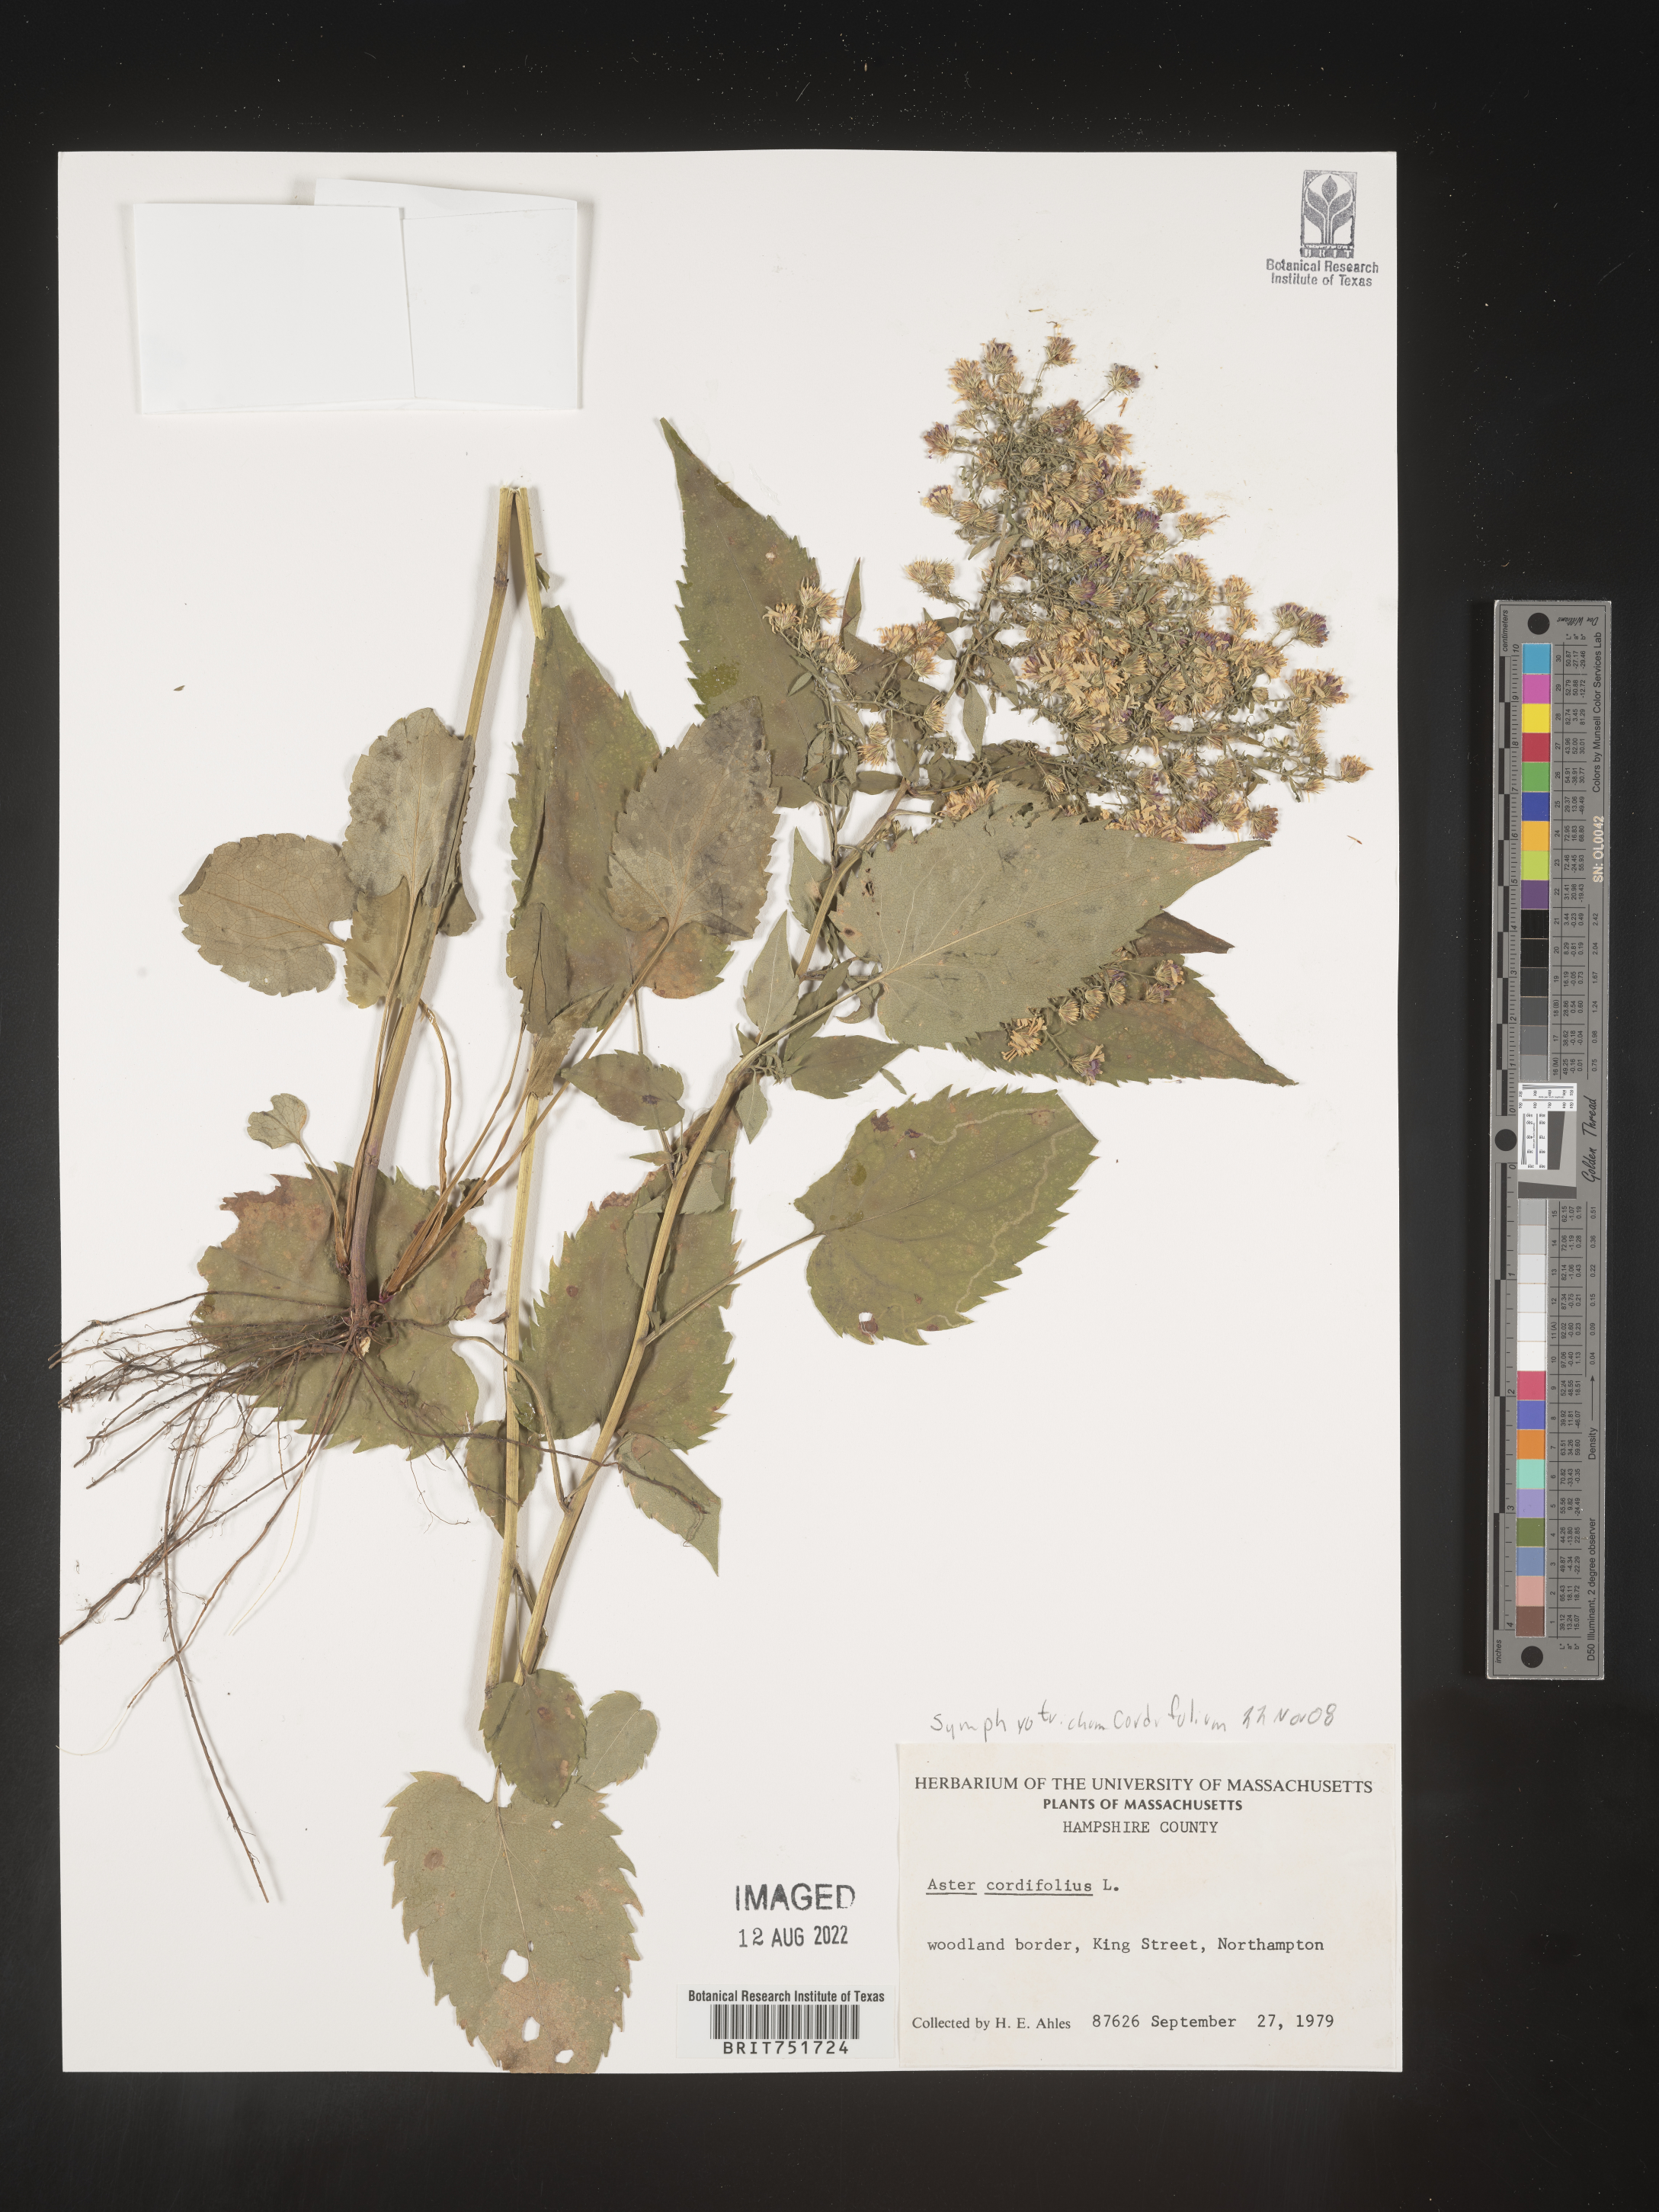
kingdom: Plantae
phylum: Tracheophyta
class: Magnoliopsida
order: Asterales
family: Asteraceae
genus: Symphyotrichum
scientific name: Symphyotrichum cordifolium
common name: Beeweed
